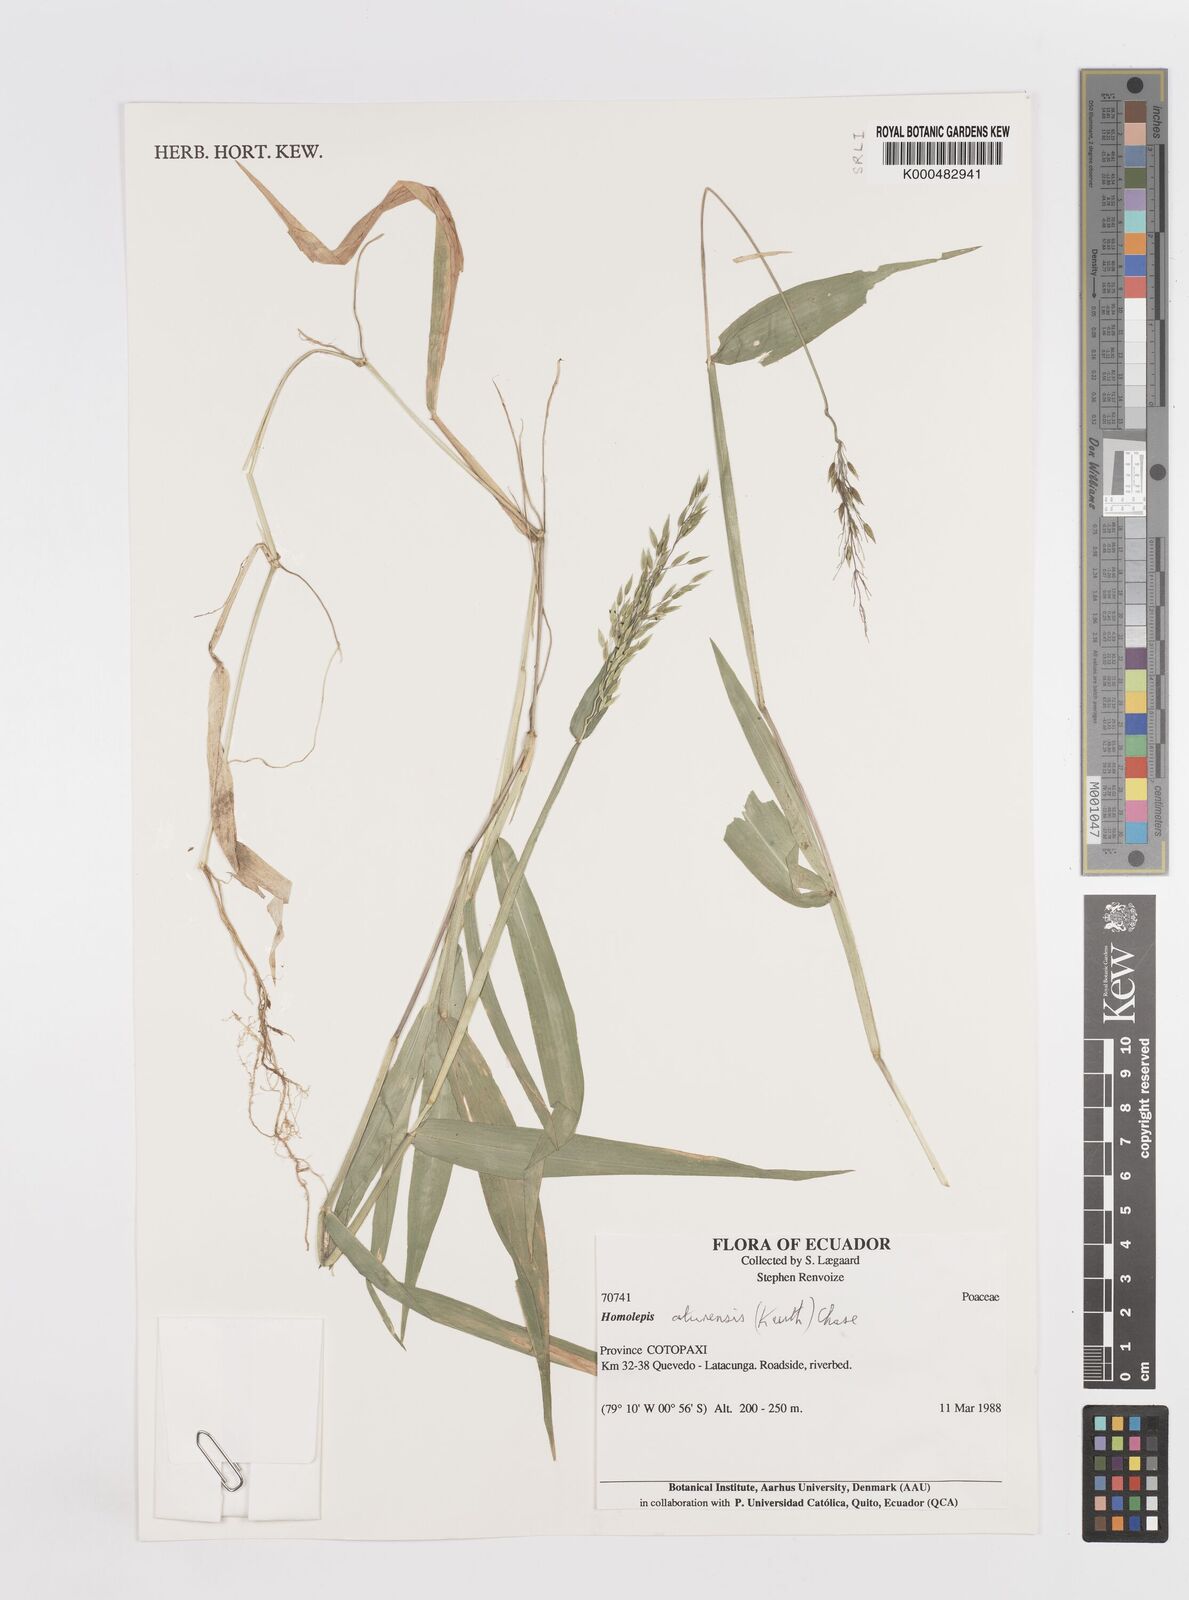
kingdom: Plantae
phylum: Tracheophyta
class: Liliopsida
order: Poales
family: Poaceae
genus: Homolepis
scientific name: Homolepis aturensis
